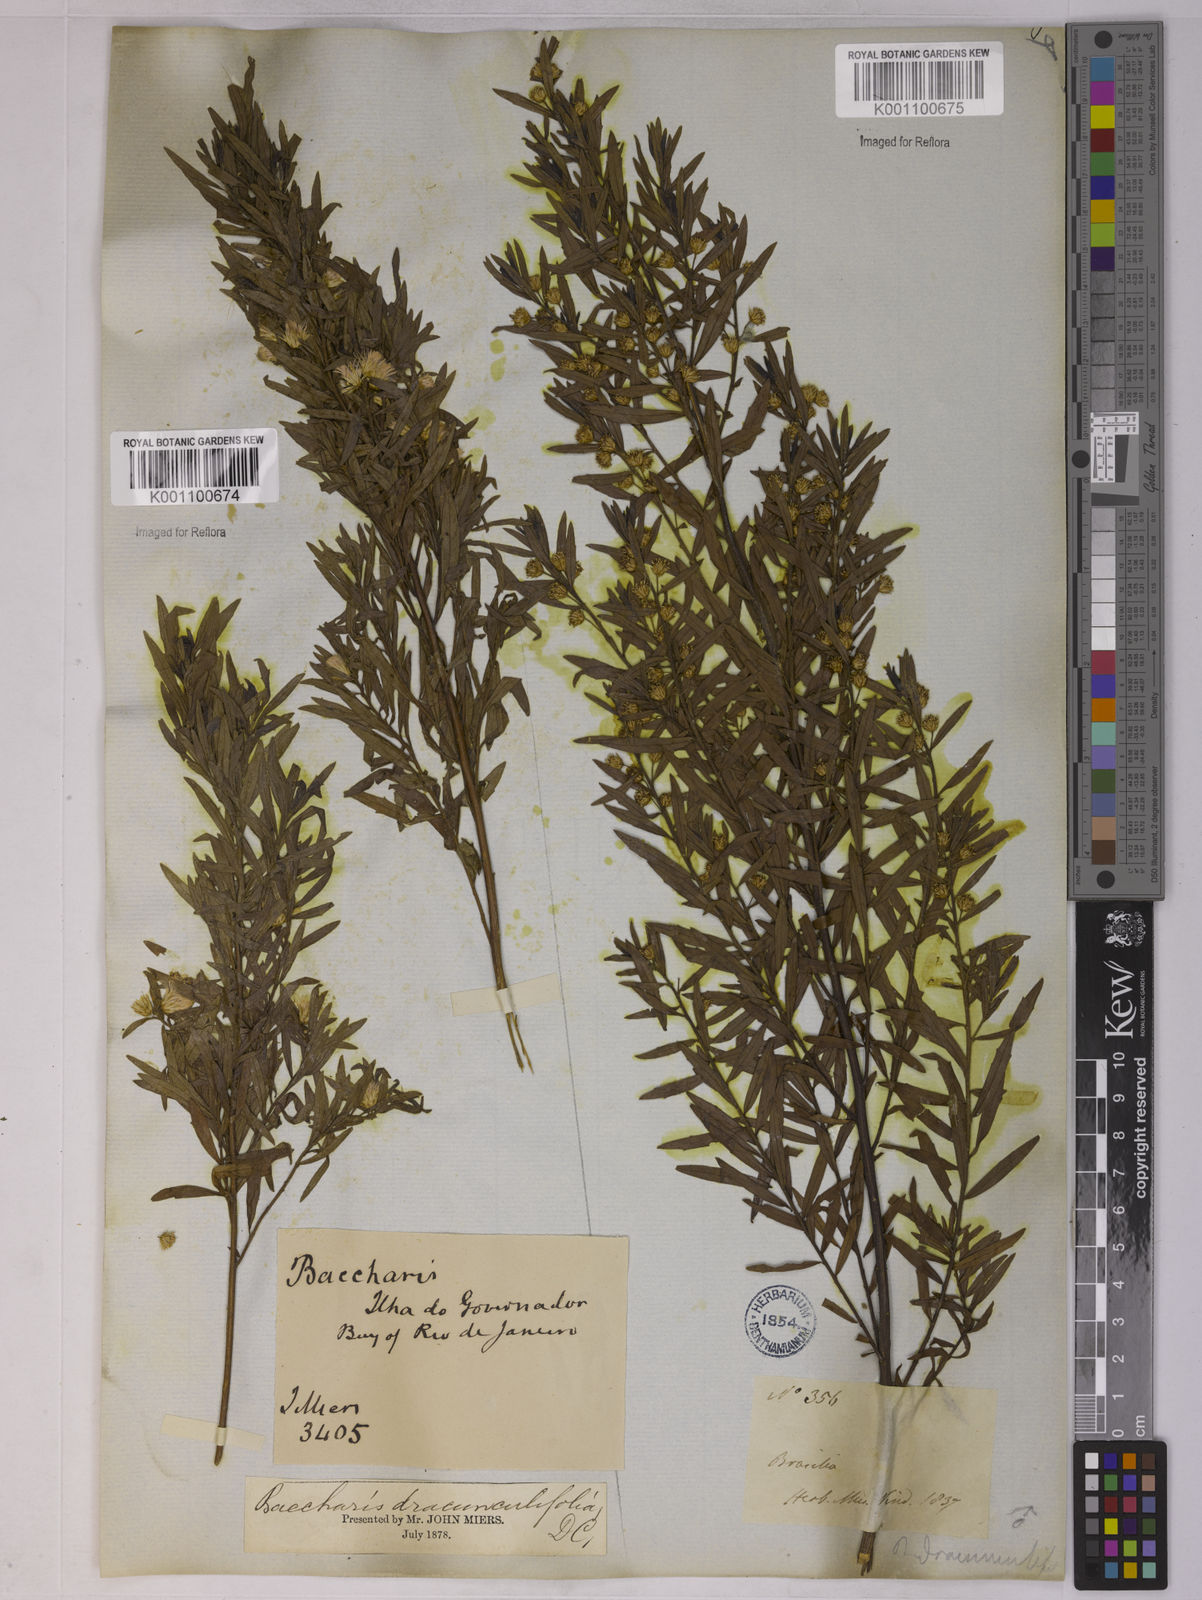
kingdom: Plantae
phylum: Tracheophyta
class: Magnoliopsida
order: Asterales
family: Asteraceae
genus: Baccharis
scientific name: Baccharis dracunculifolia
